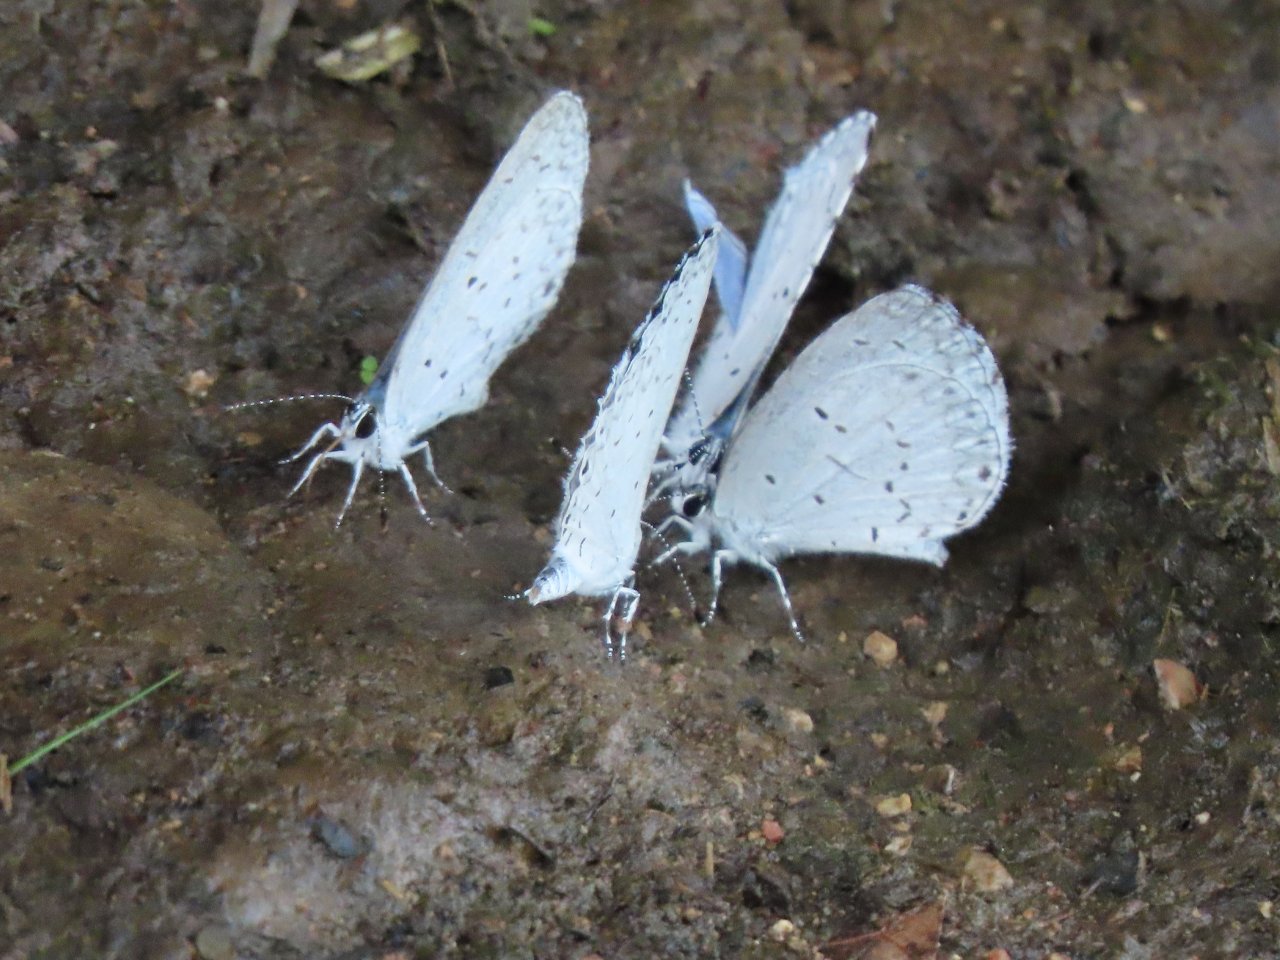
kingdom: Animalia
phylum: Arthropoda
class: Insecta
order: Lepidoptera
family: Lycaenidae
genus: Cyaniris
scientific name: Cyaniris neglecta
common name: Summer Azure
